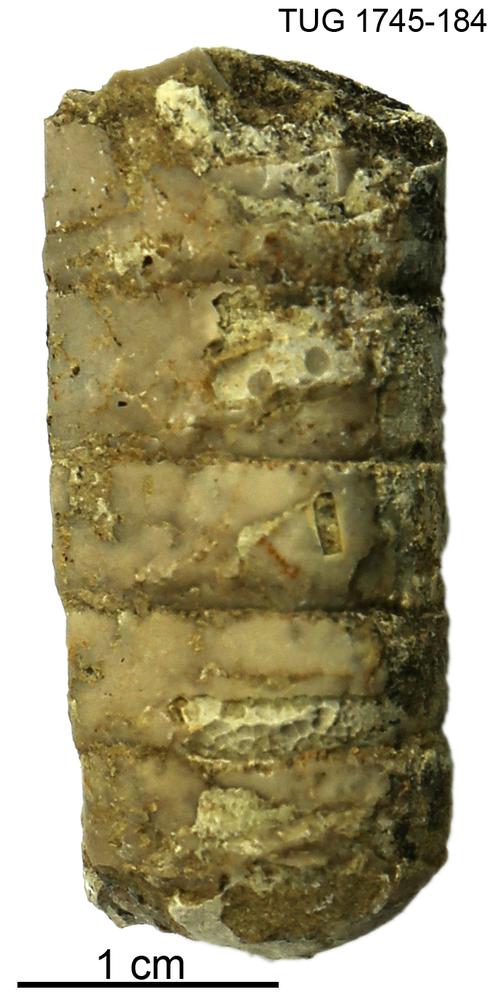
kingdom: Animalia
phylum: Mollusca
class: Cephalopoda
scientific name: Cephalopoda
